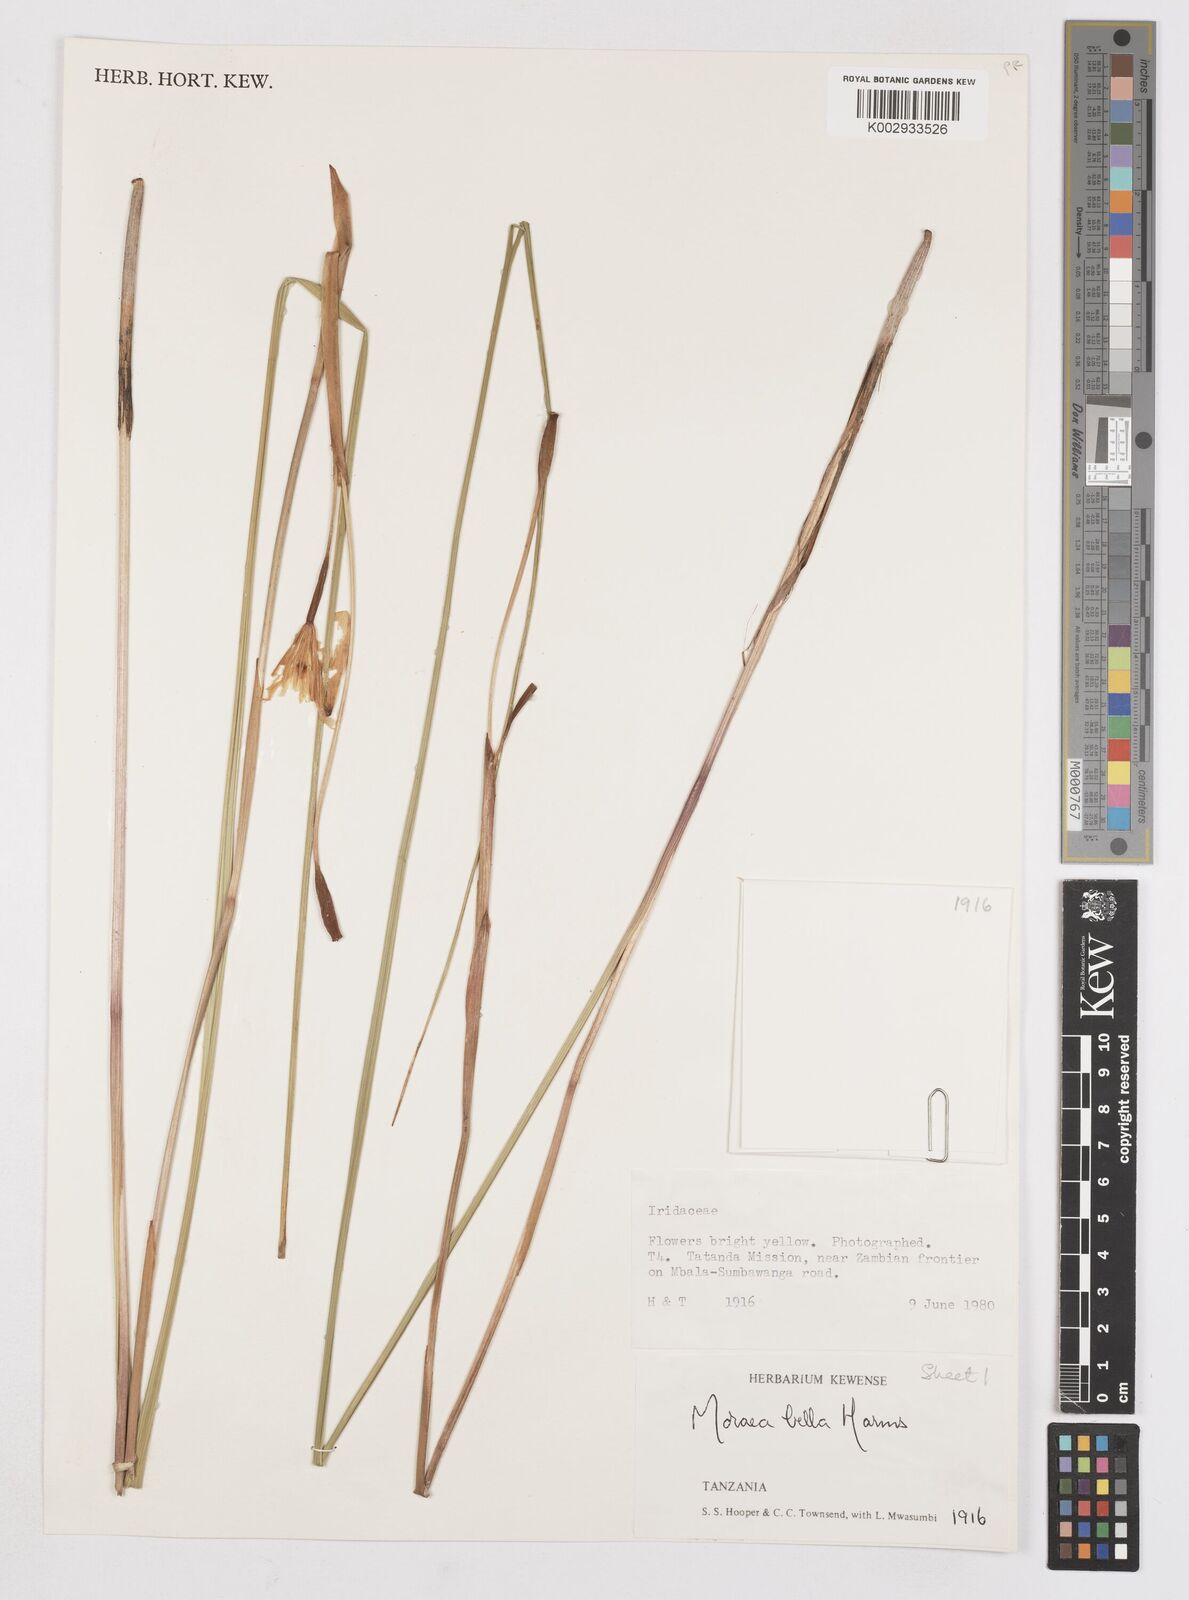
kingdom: Plantae
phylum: Tracheophyta
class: Liliopsida
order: Asparagales
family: Iridaceae
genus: Moraea
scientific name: Moraea bella
